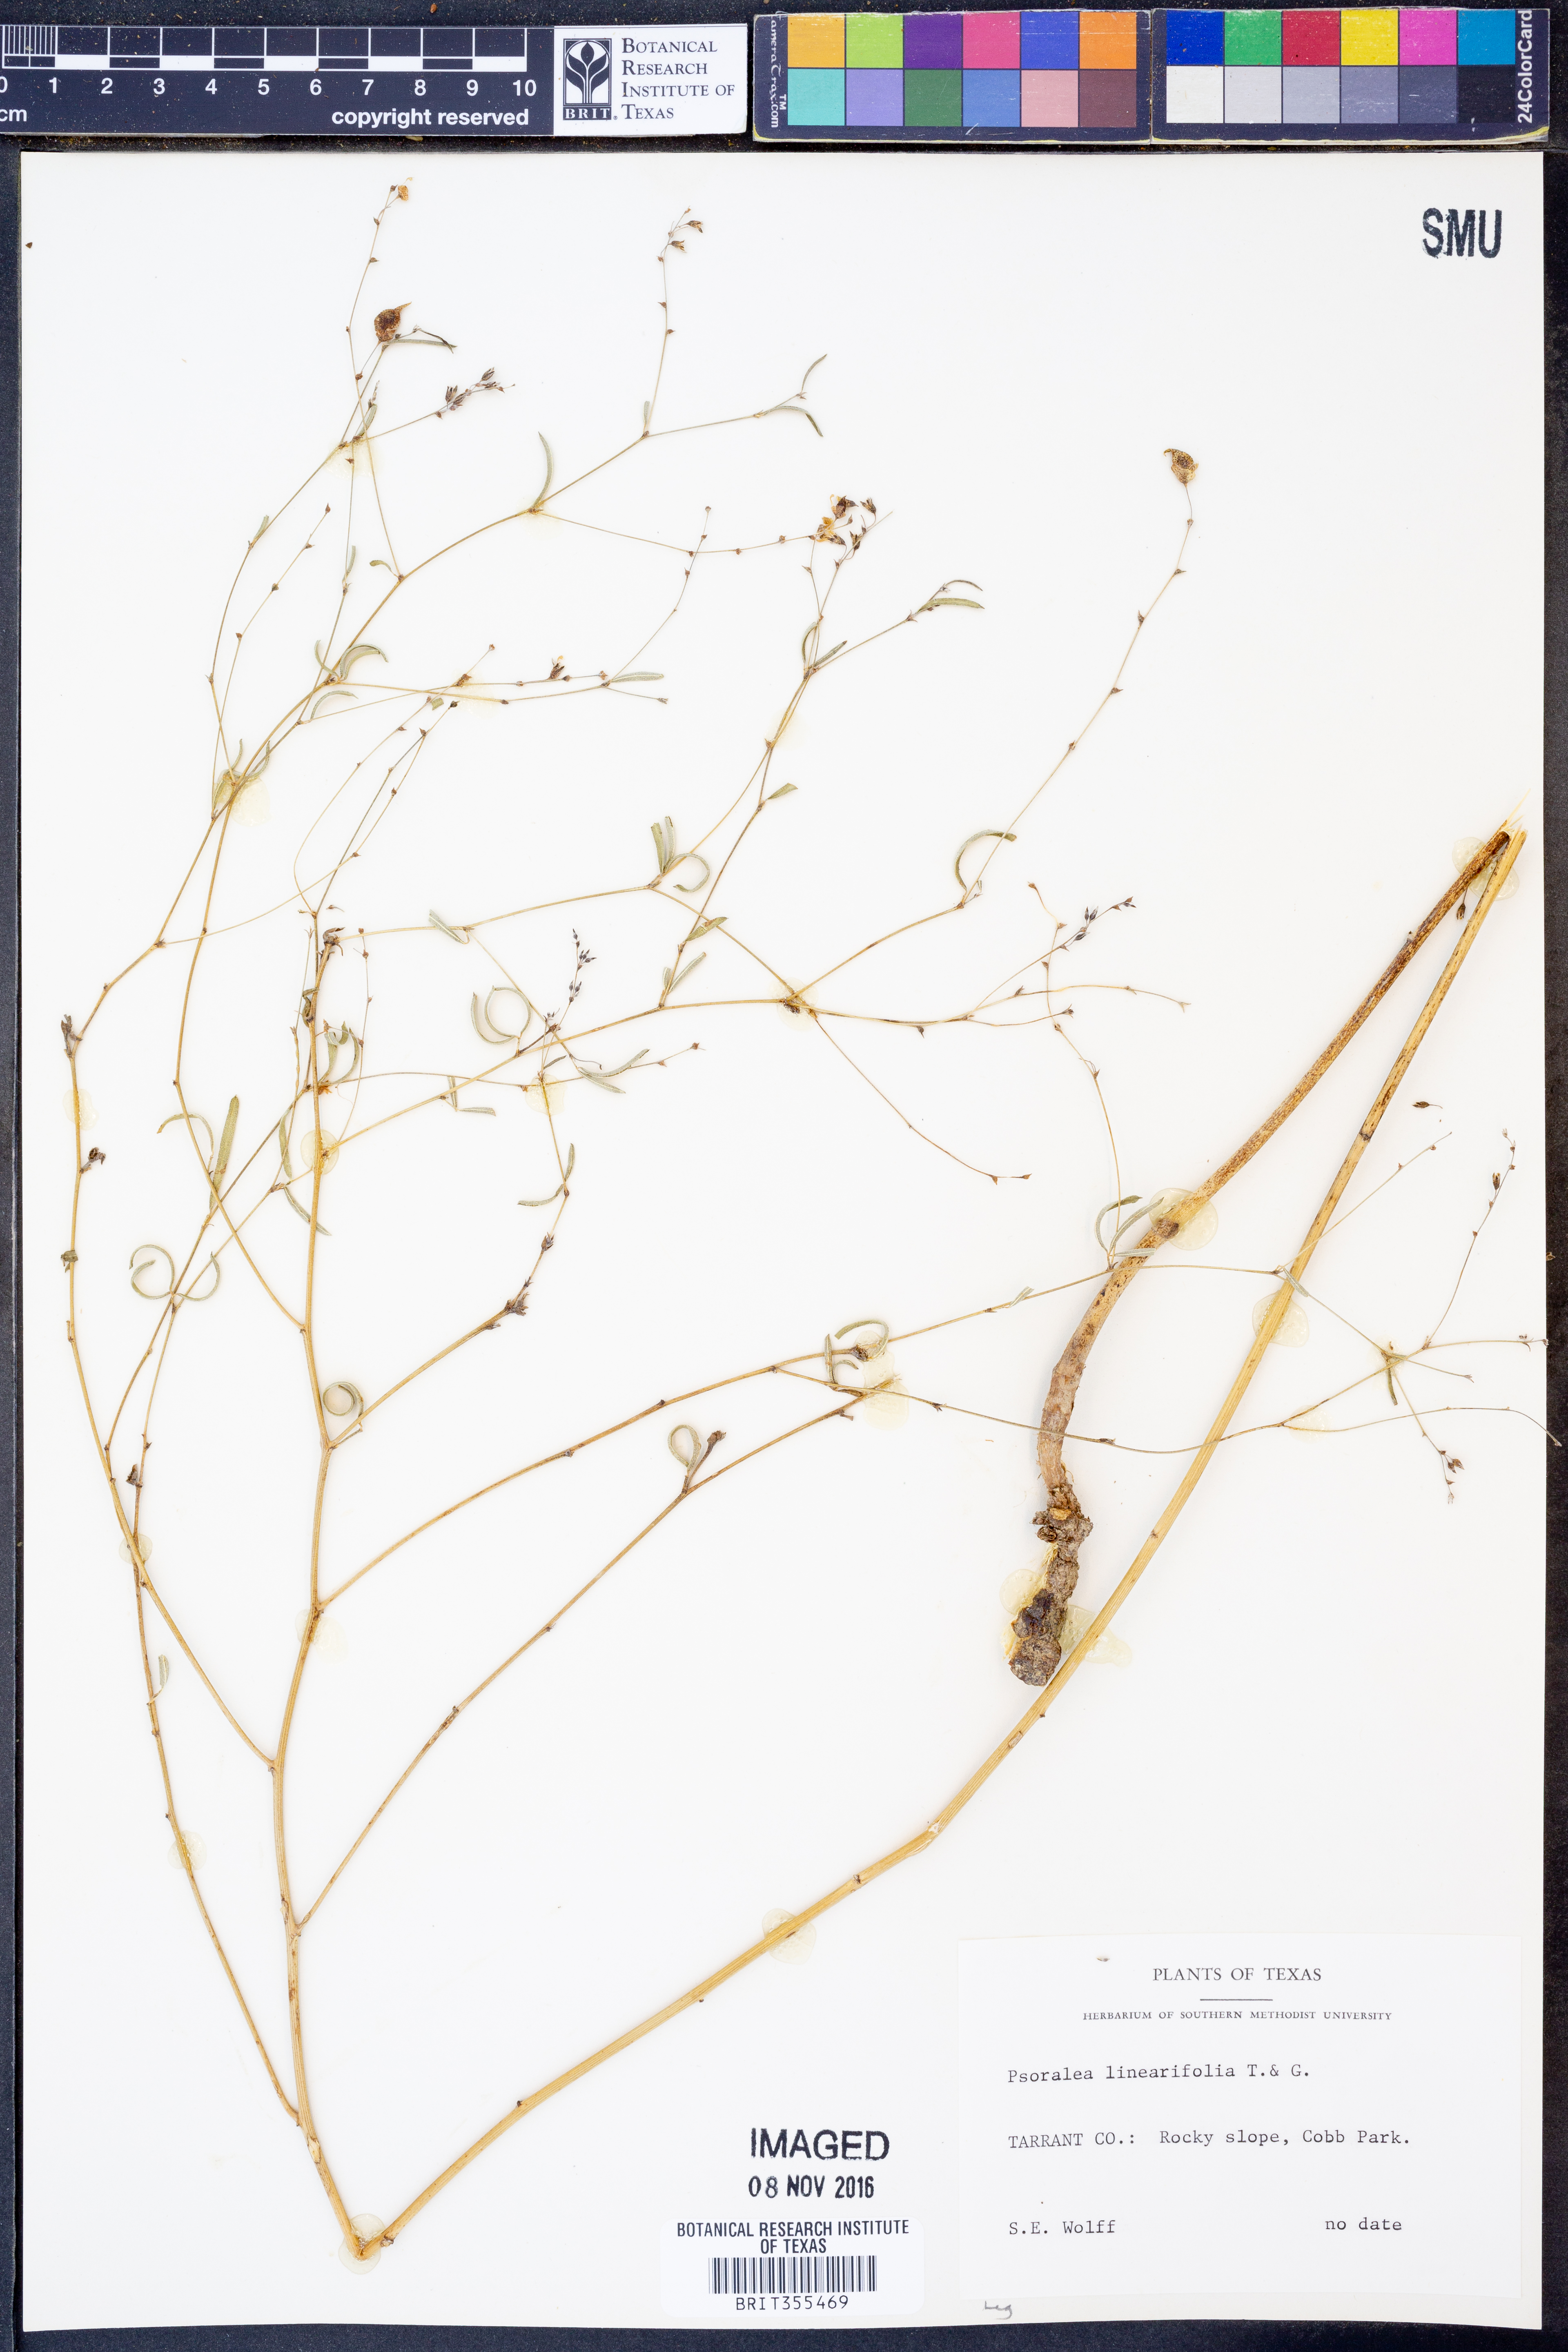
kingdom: Plantae
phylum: Tracheophyta
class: Magnoliopsida
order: Fabales
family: Fabaceae
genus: Pediomelum
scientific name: Pediomelum linearifolium
